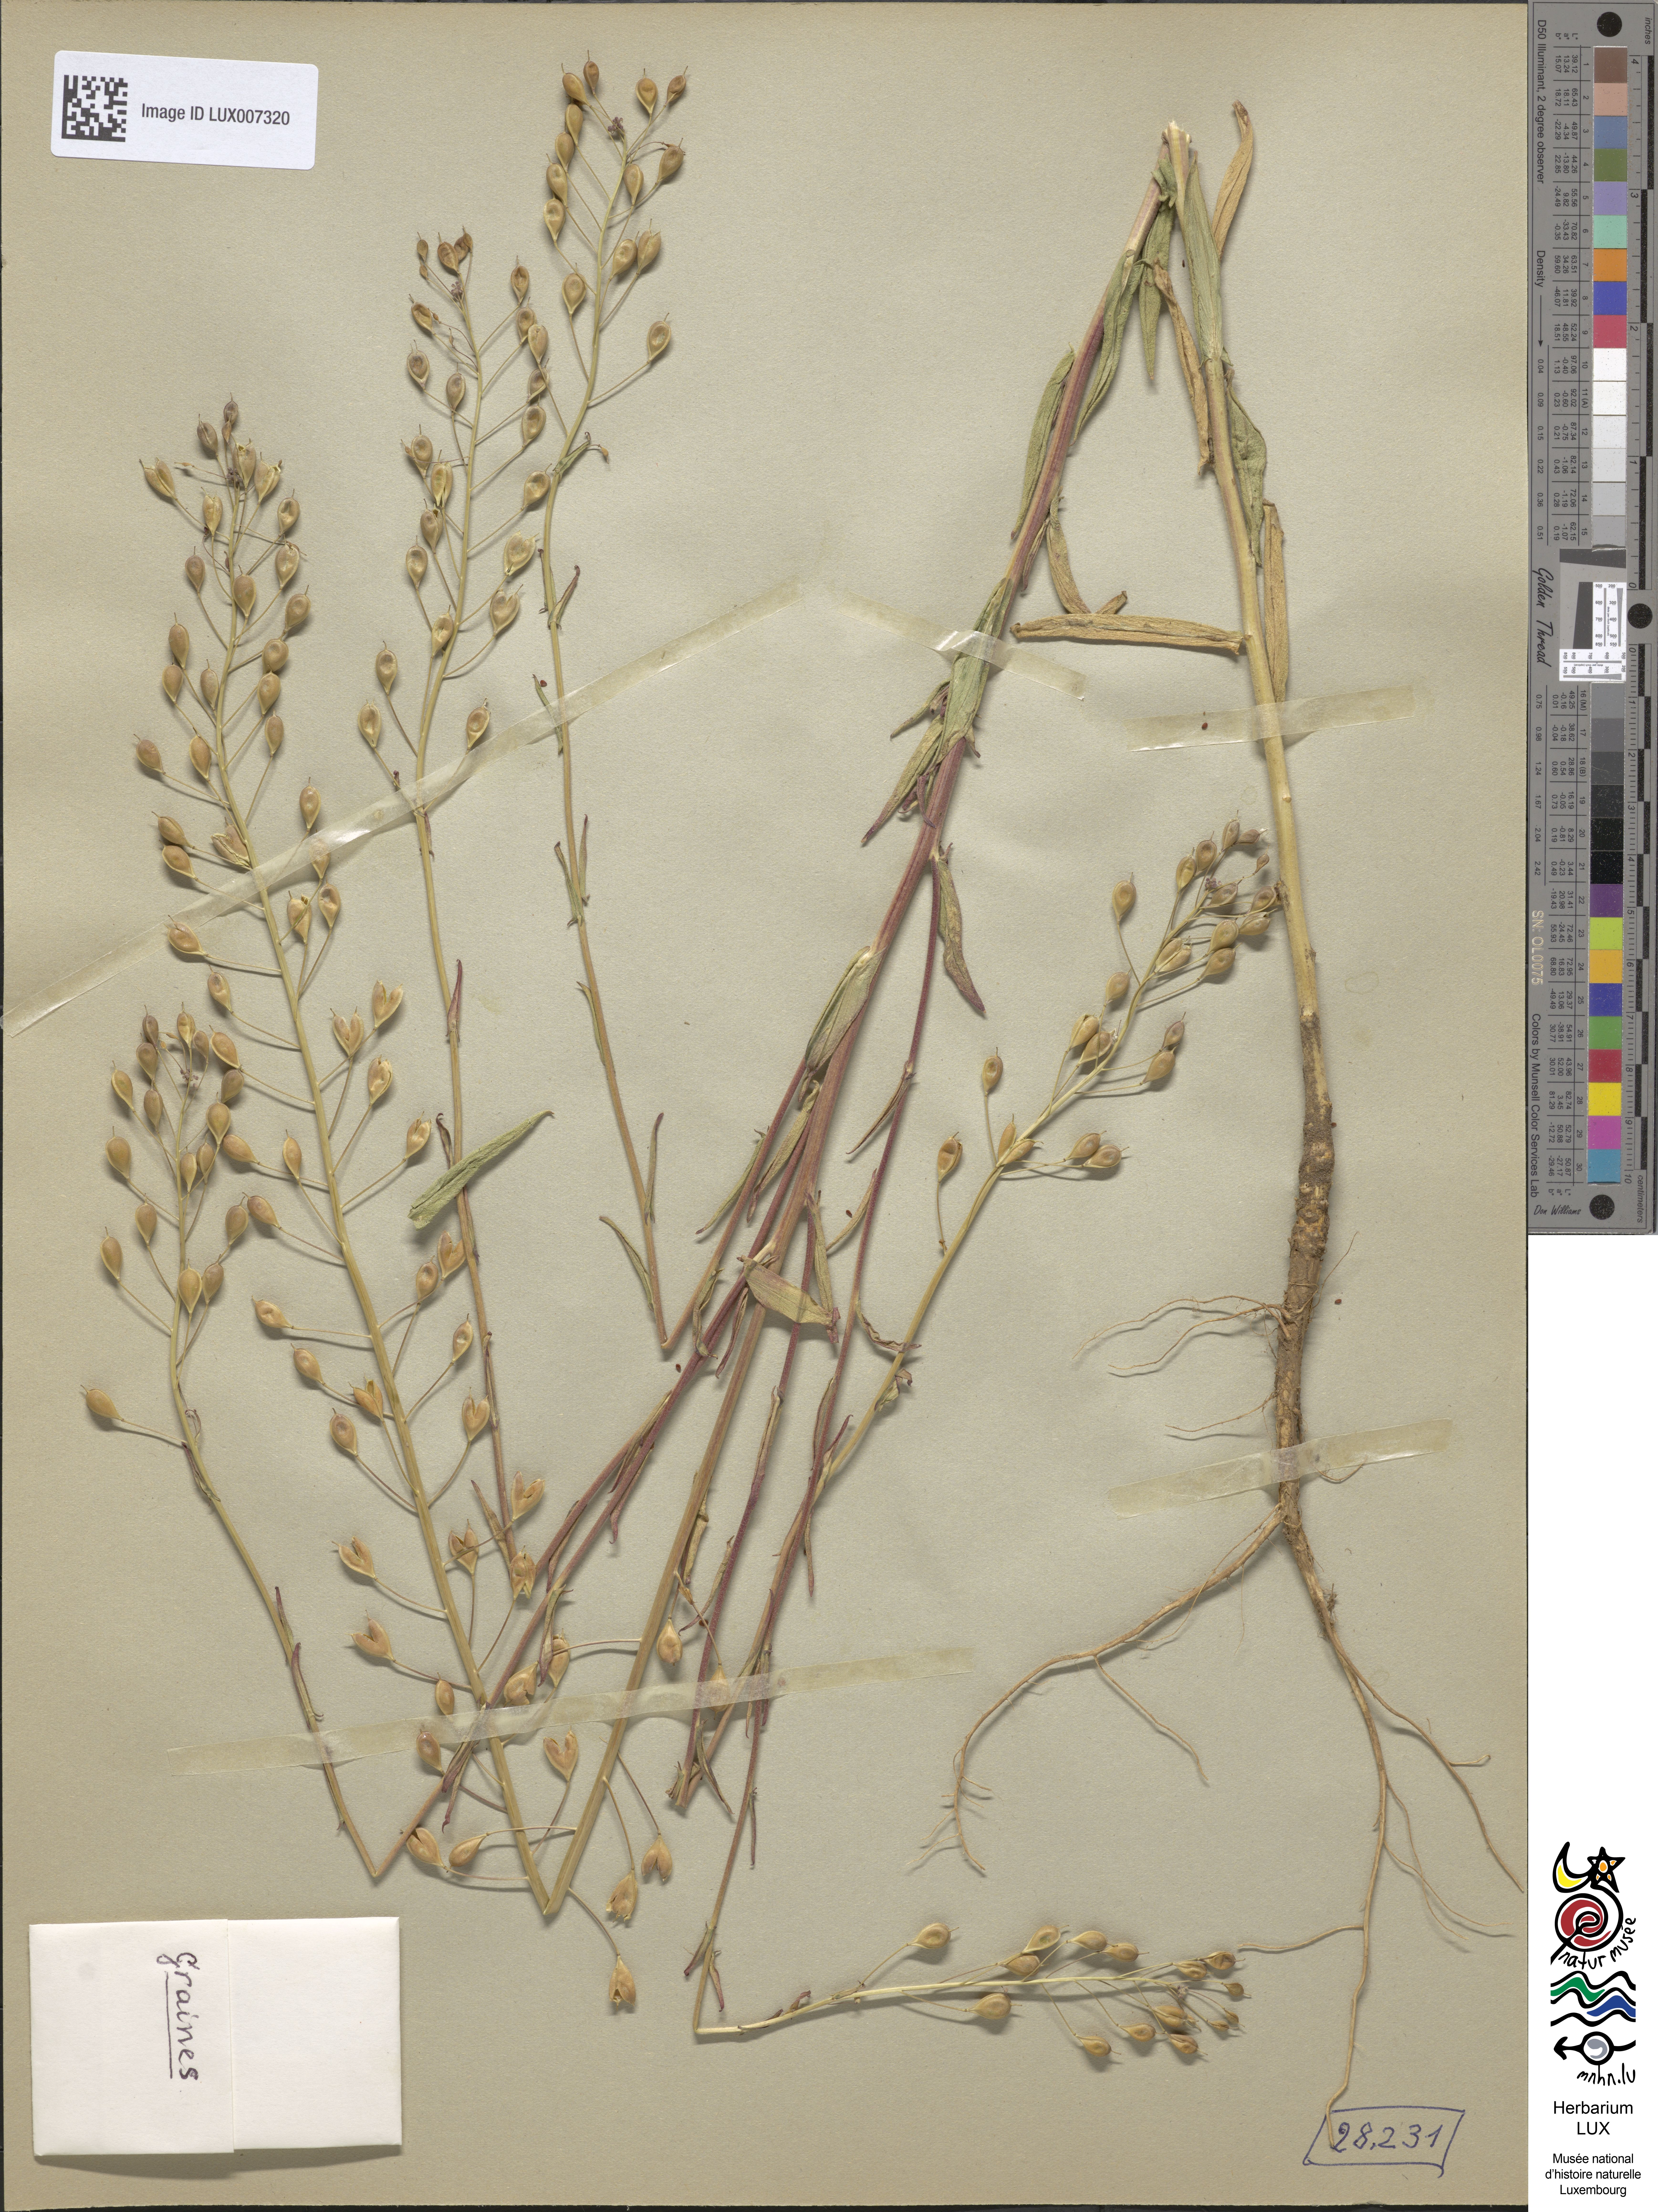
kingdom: Plantae
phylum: Tracheophyta
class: Magnoliopsida
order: Brassicales
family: Brassicaceae
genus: Camelina
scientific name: Camelina alyssum
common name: Gold-of-pleasure
